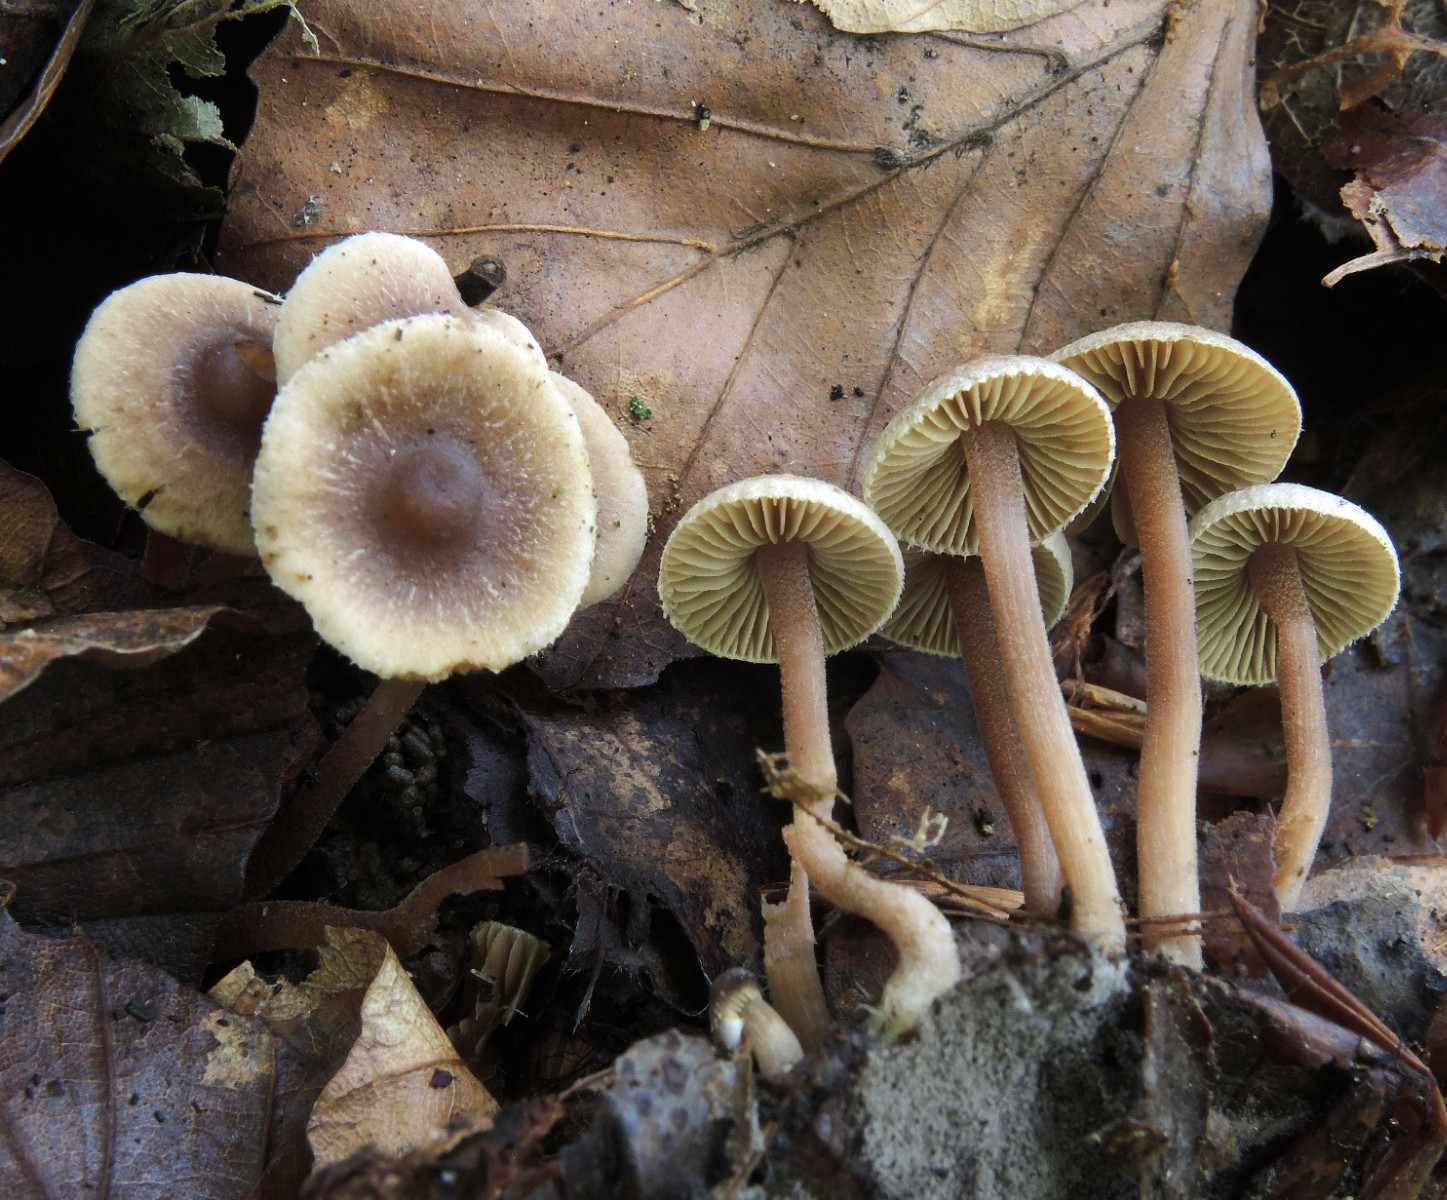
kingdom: Fungi
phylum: Basidiomycota
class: Agaricomycetes
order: Agaricales
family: Inocybaceae
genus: Inocybe
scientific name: Inocybe petiginosa
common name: liden trævlhat
